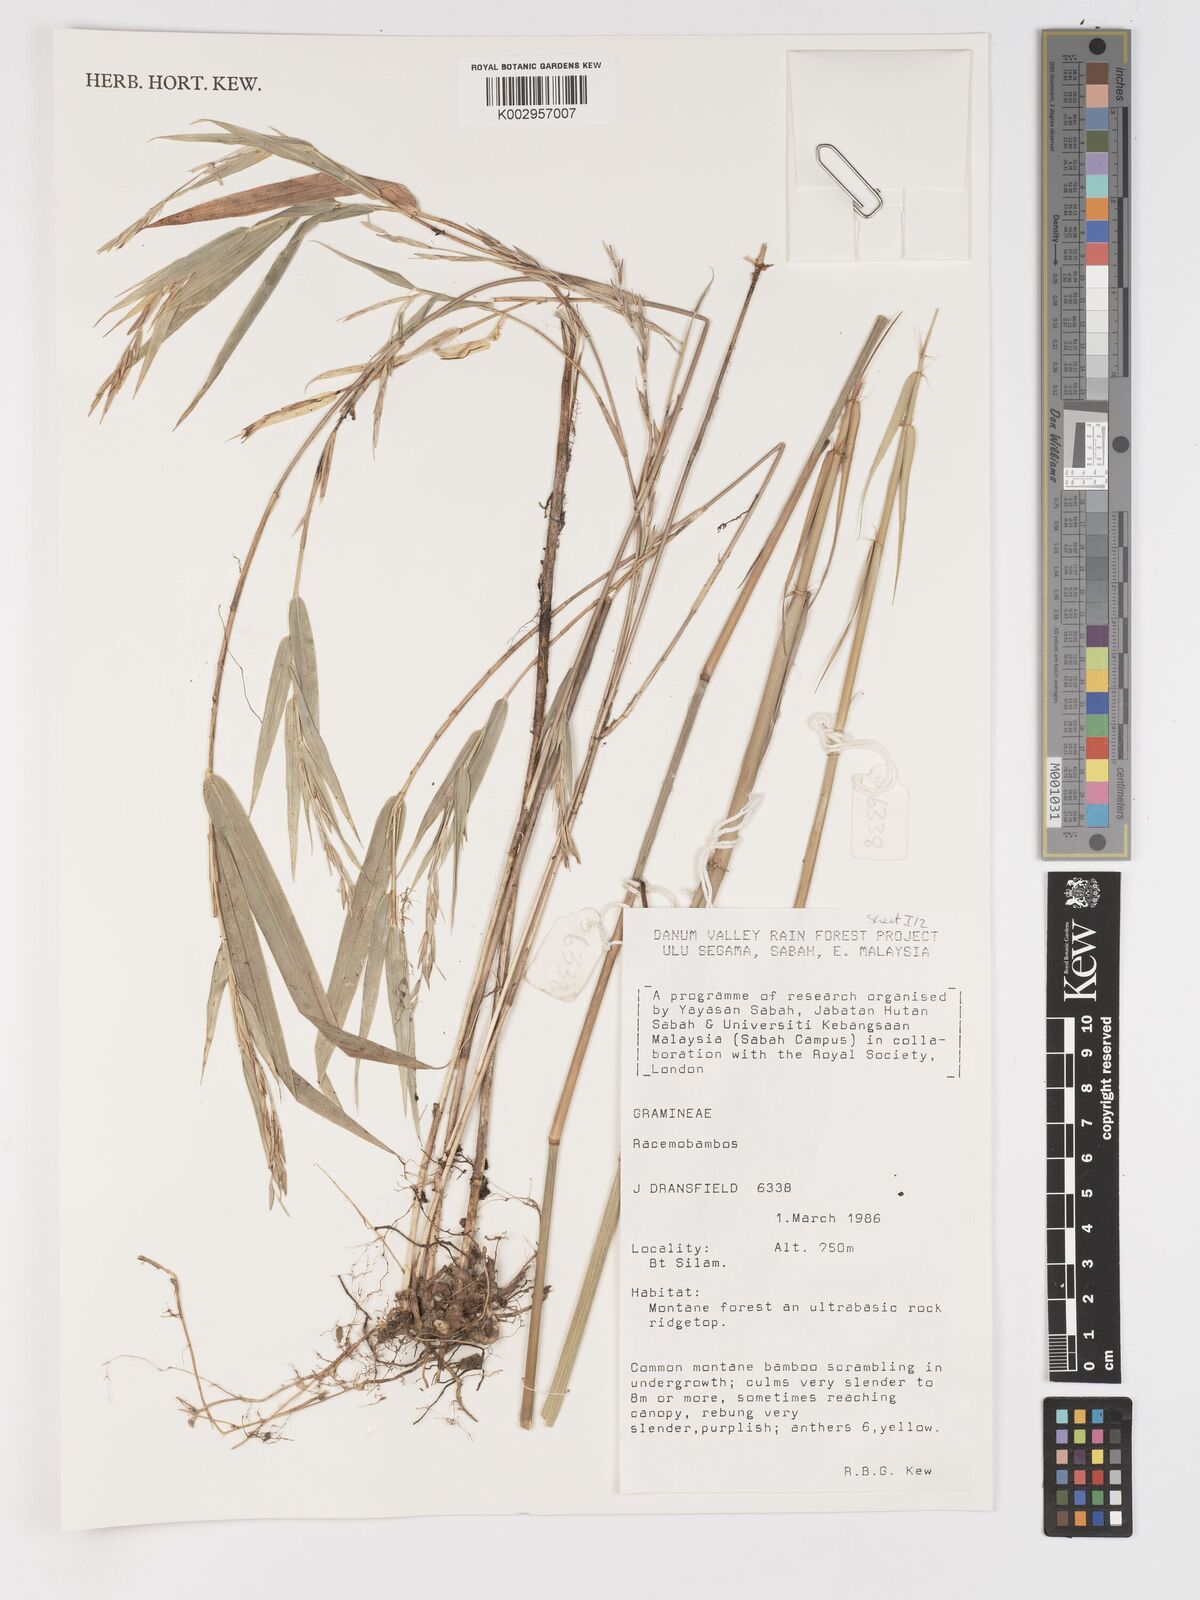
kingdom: Plantae
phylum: Tracheophyta
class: Liliopsida
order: Poales
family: Poaceae
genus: Racemobambos
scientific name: Racemobambos
